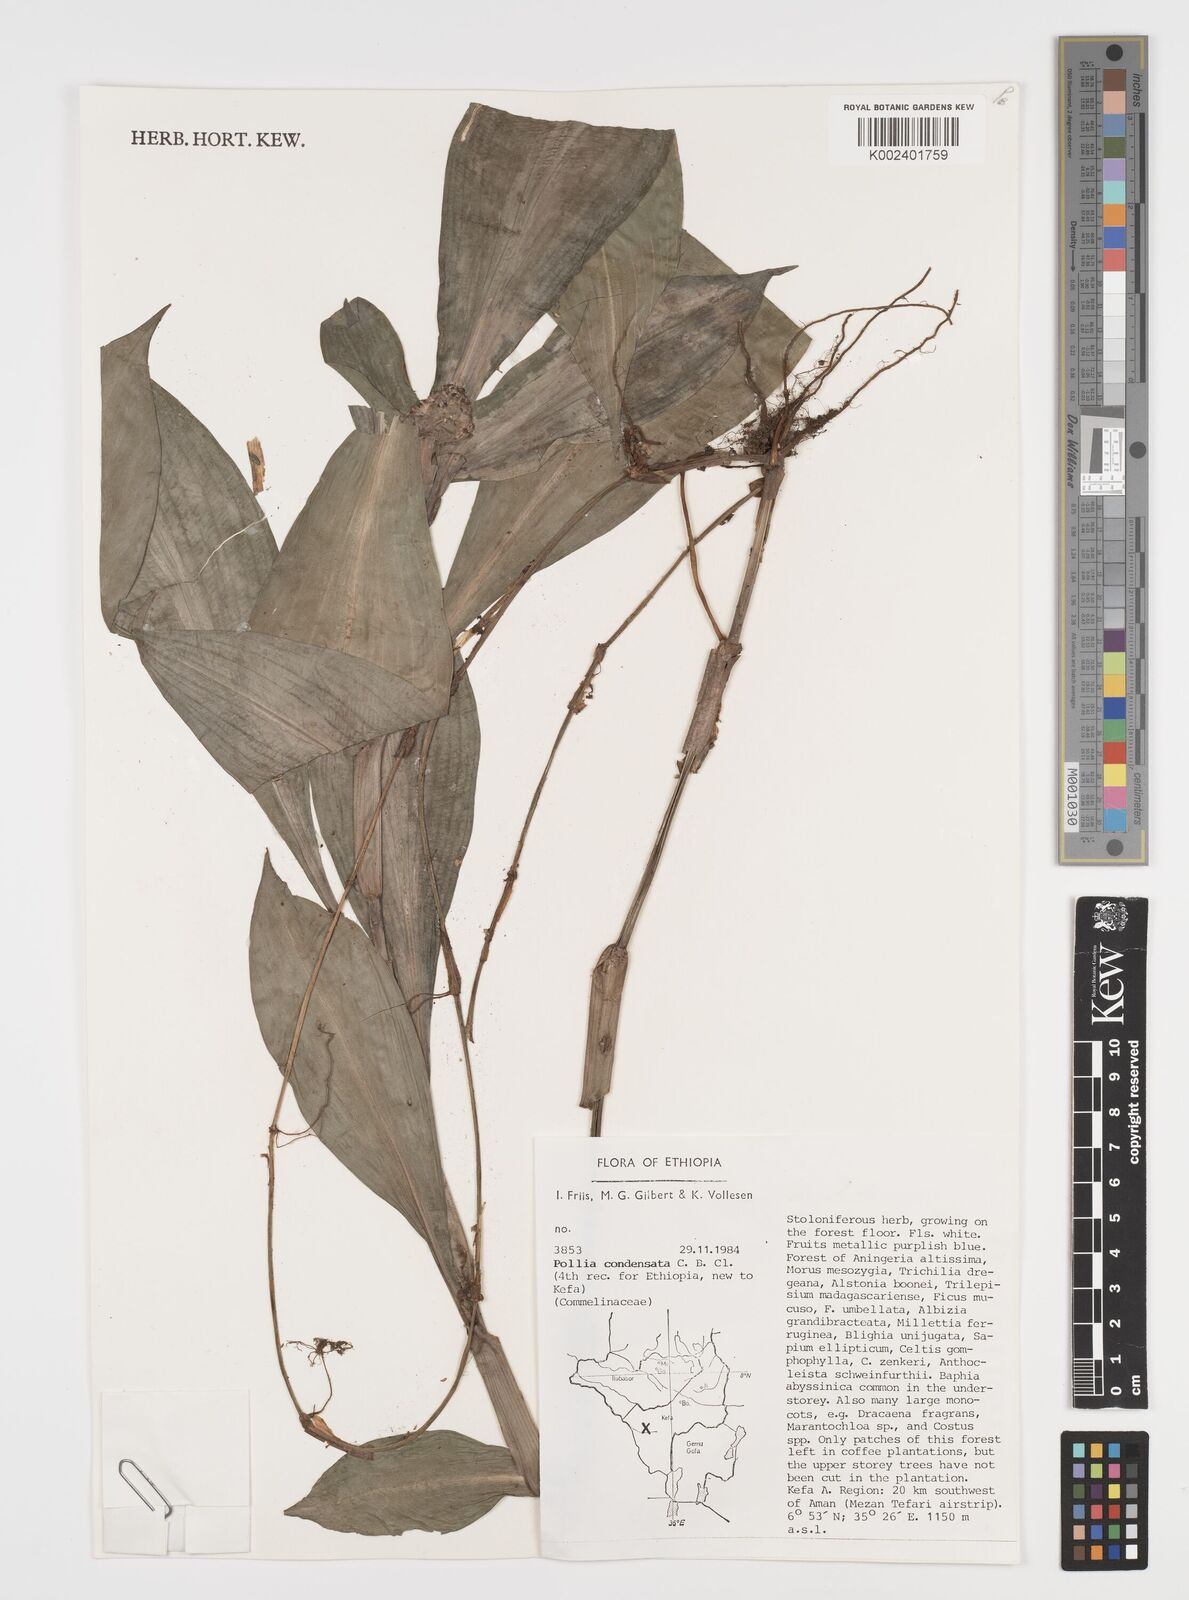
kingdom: Plantae
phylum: Tracheophyta
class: Liliopsida
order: Commelinales
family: Commelinaceae
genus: Pollia
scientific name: Pollia condensata
